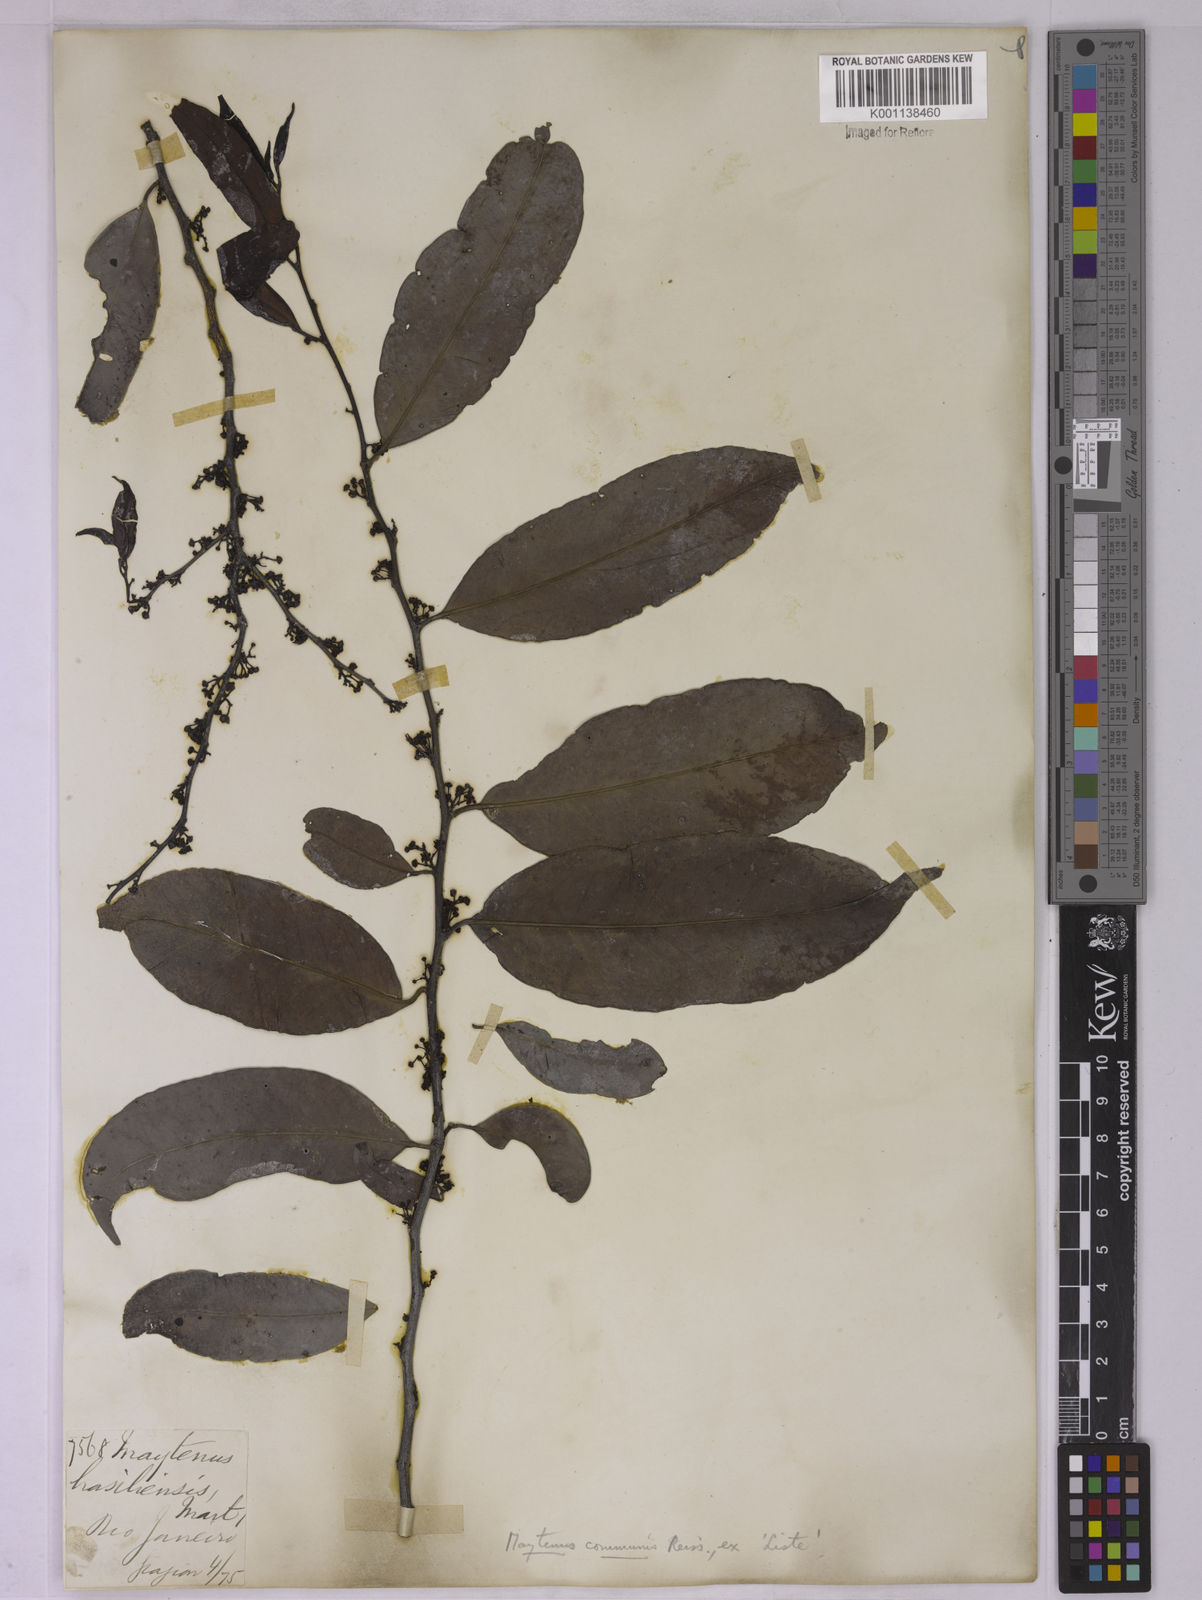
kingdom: Plantae
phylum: Tracheophyta
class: Magnoliopsida
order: Celastrales
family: Celastraceae
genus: Monteverdia
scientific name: Monteverdia communis
